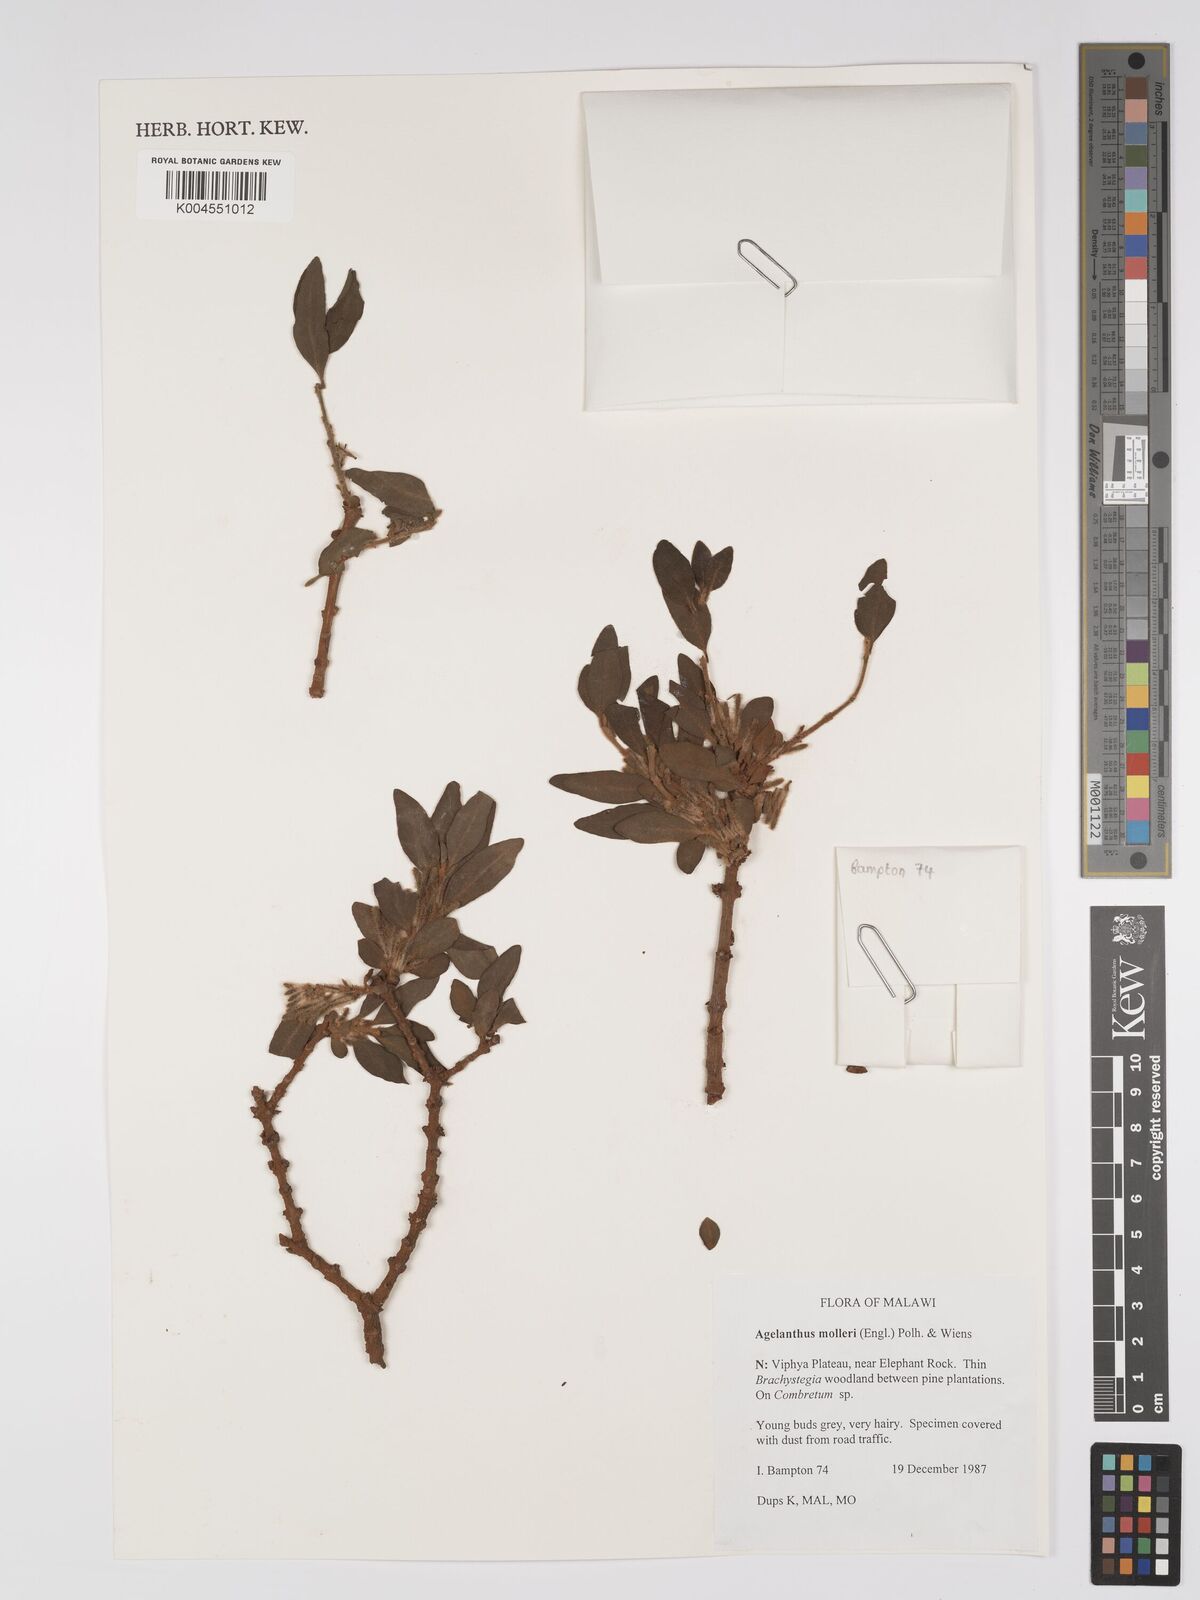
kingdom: Plantae
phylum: Tracheophyta
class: Magnoliopsida
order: Santalales
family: Loranthaceae
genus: Agelanthus
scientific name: Agelanthus molleri
